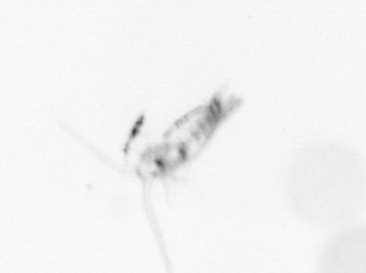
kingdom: Animalia
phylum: Arthropoda
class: Copepoda
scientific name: Copepoda
